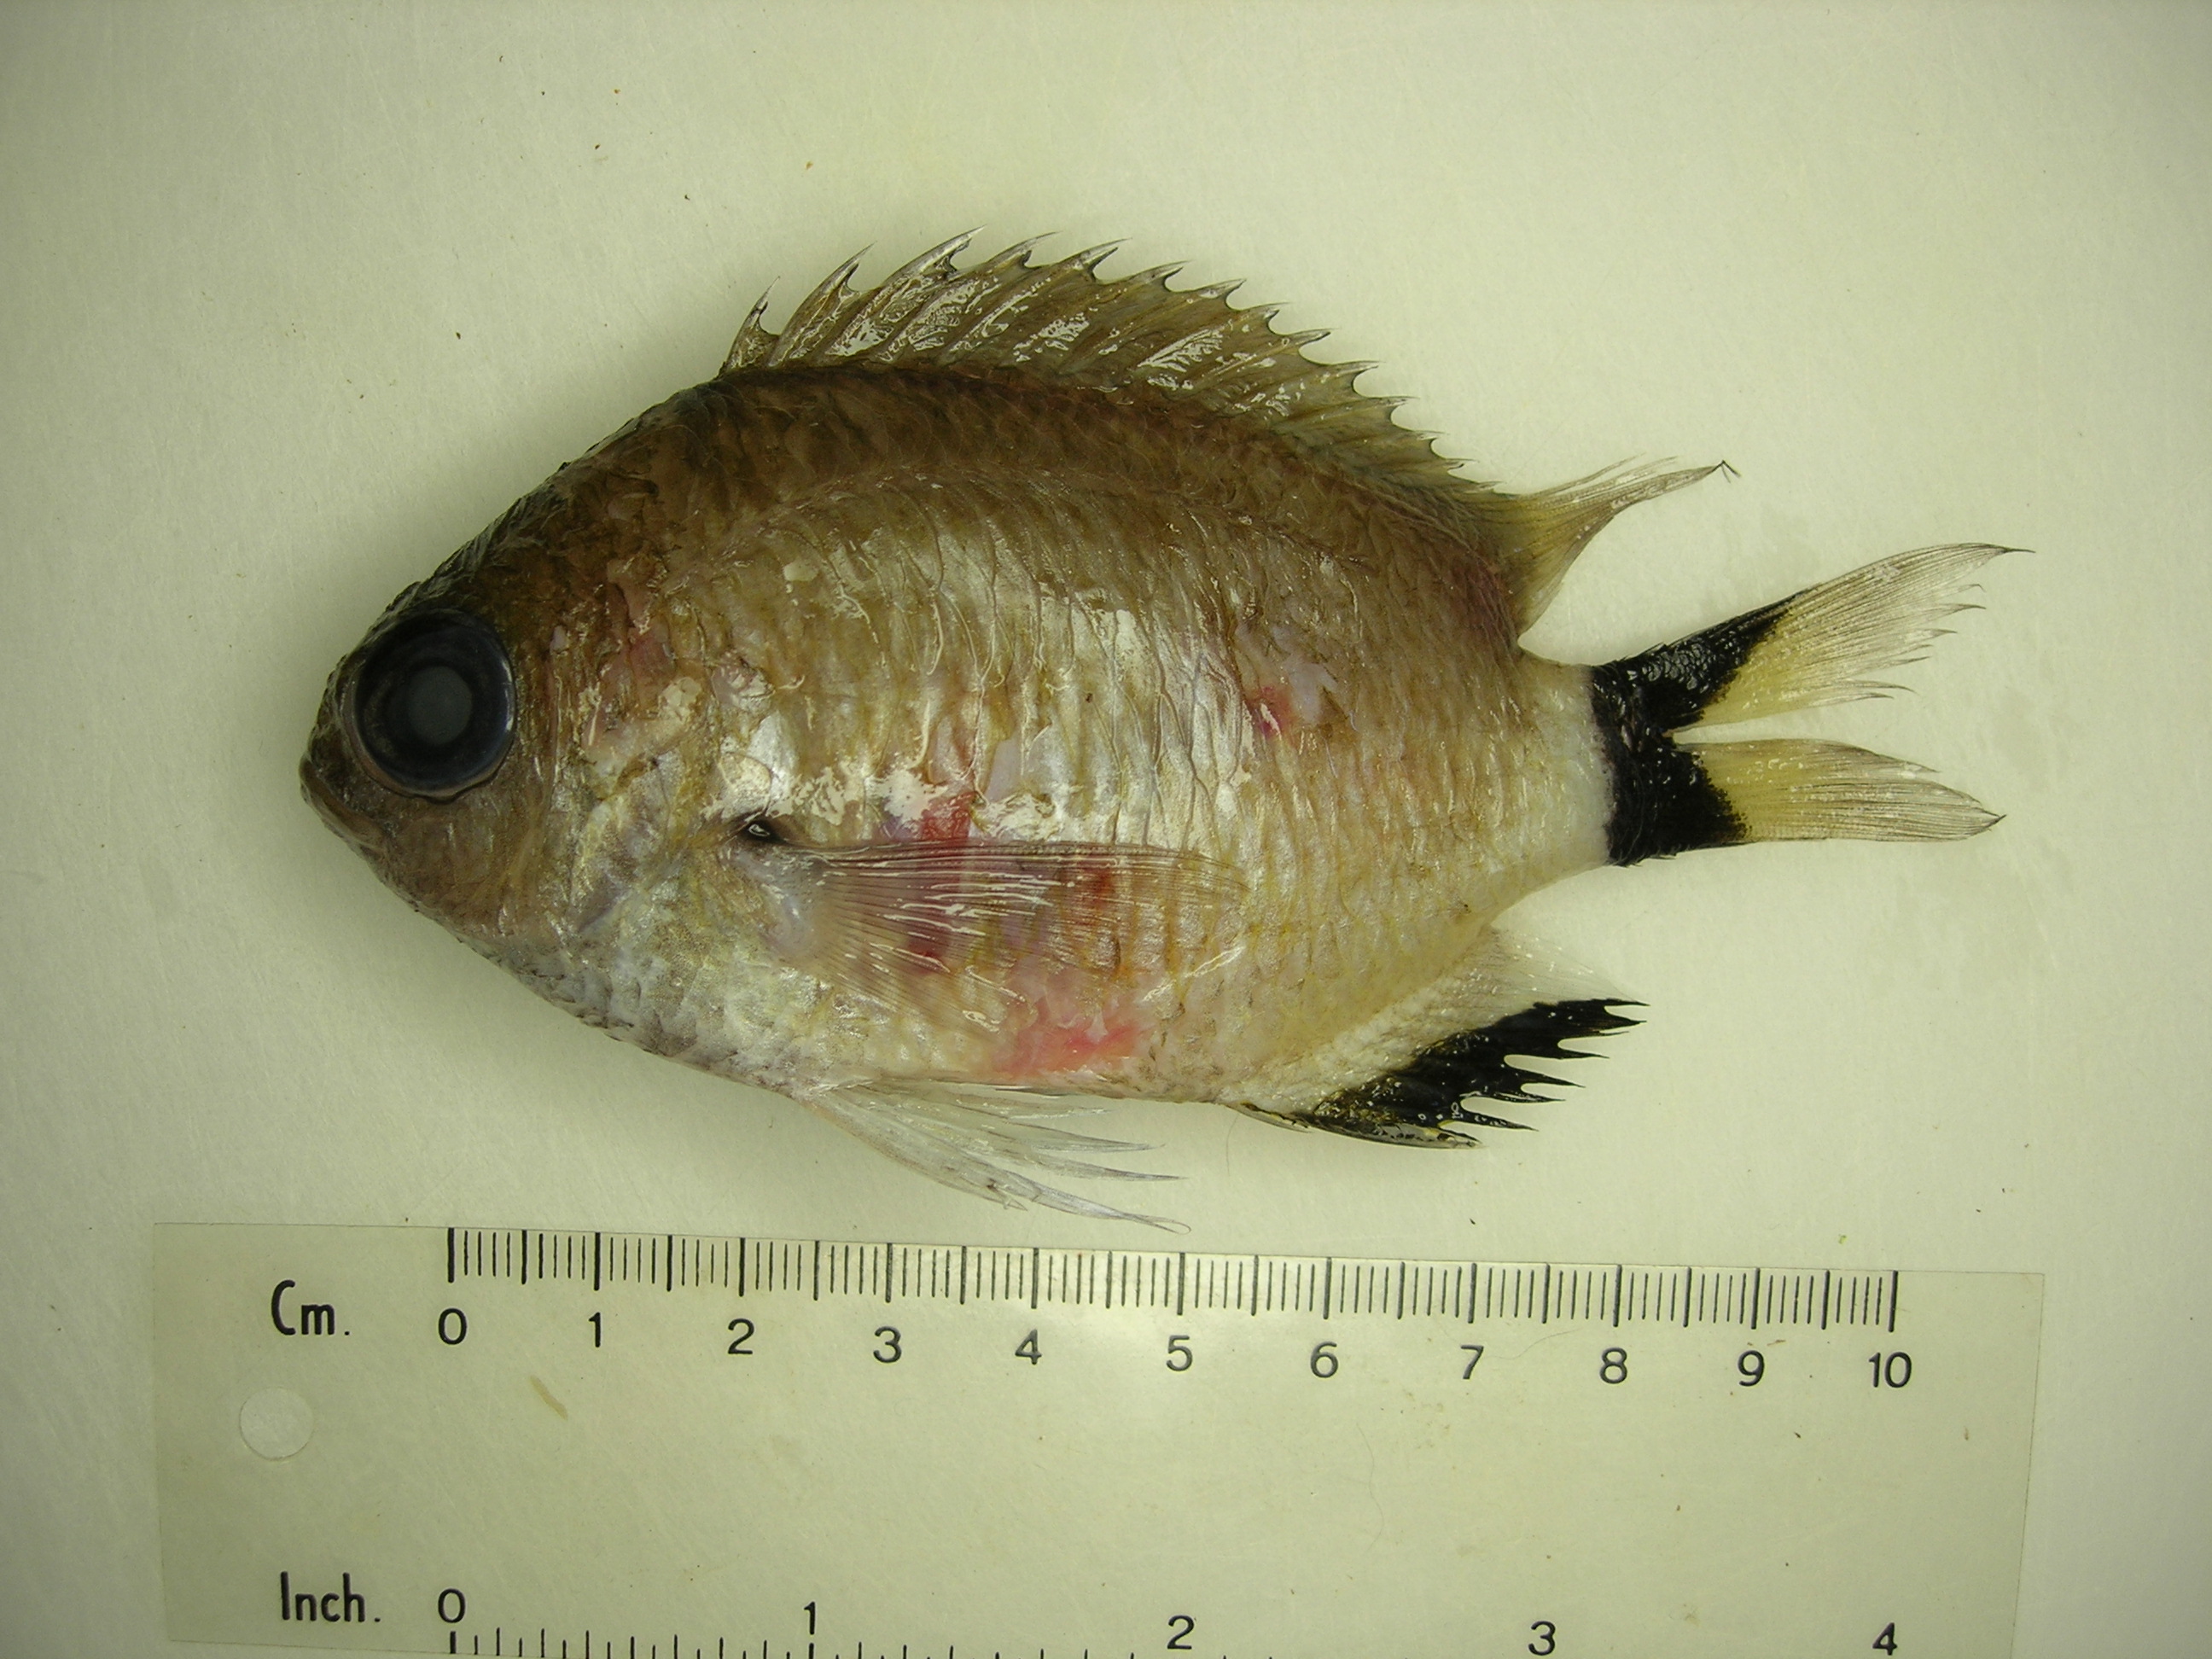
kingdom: Animalia
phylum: Chordata
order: Perciformes
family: Pomacentridae
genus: Chromis
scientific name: Chromis woodsi
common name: Spiny chromis
